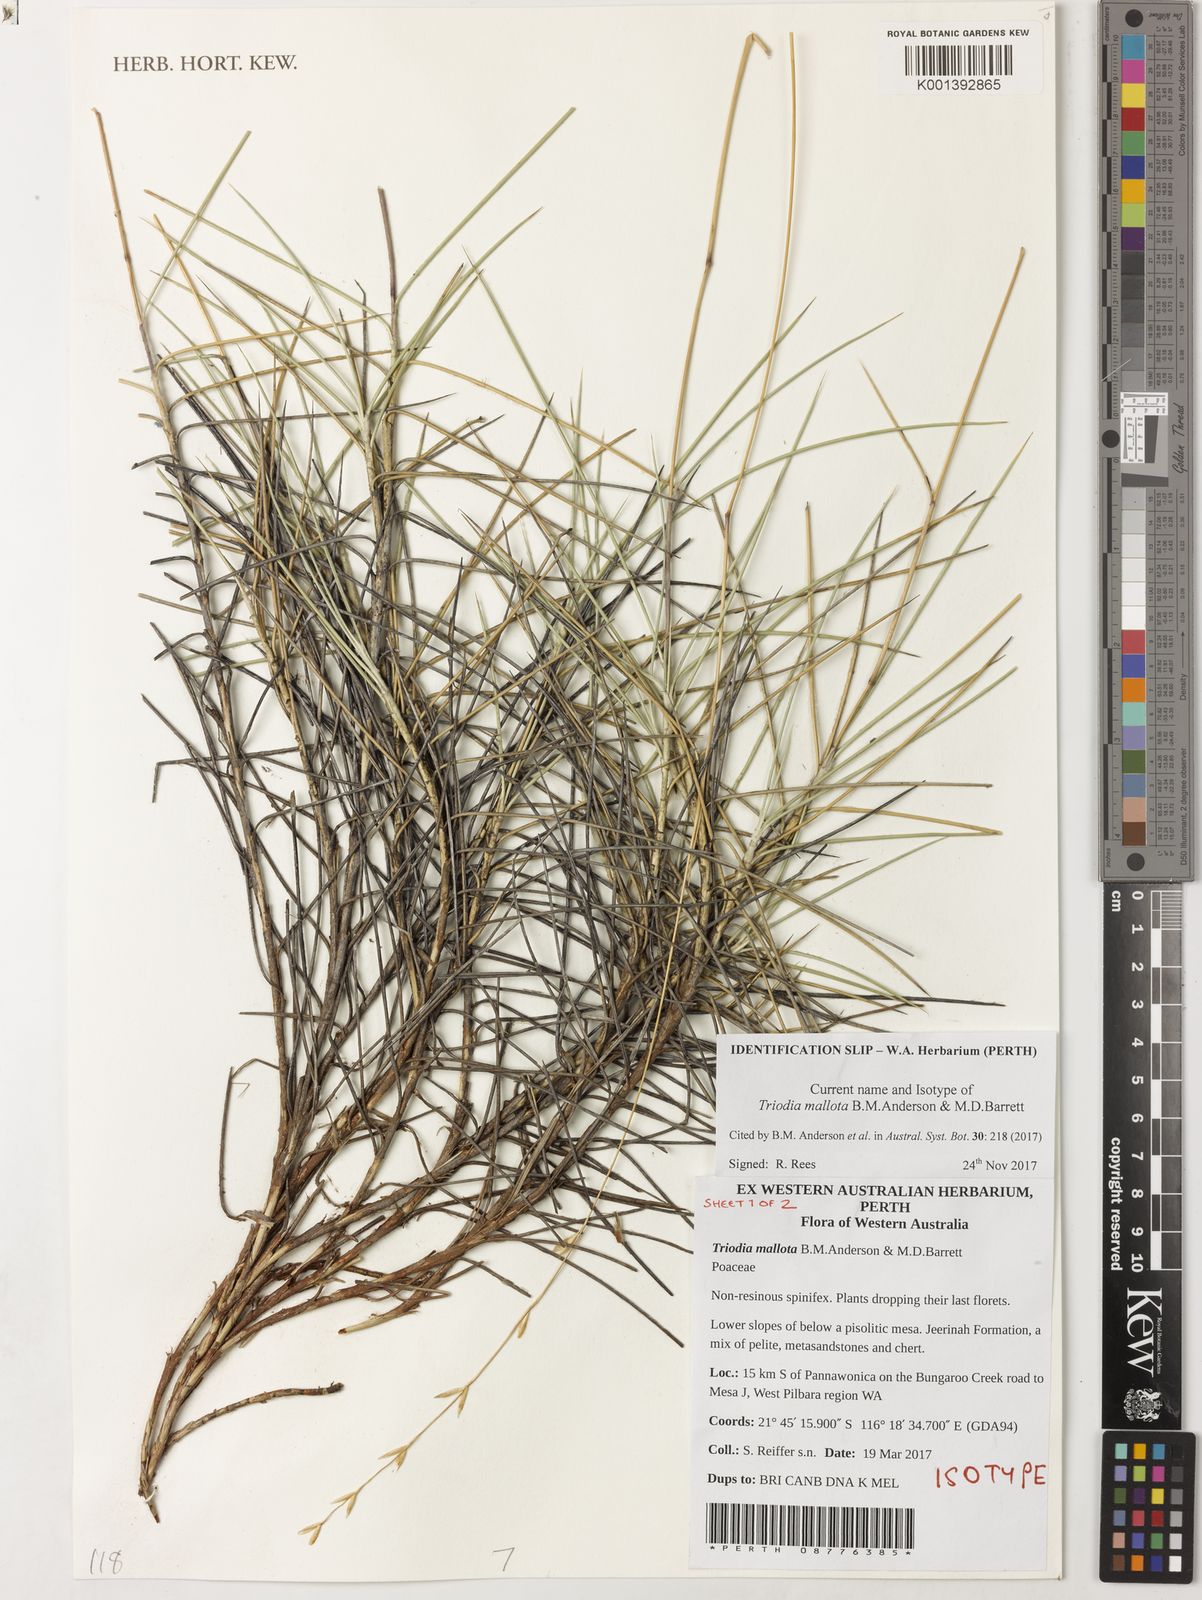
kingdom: Plantae
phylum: Tracheophyta
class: Liliopsida
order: Poales
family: Poaceae
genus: Triodia
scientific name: Triodia mallota
